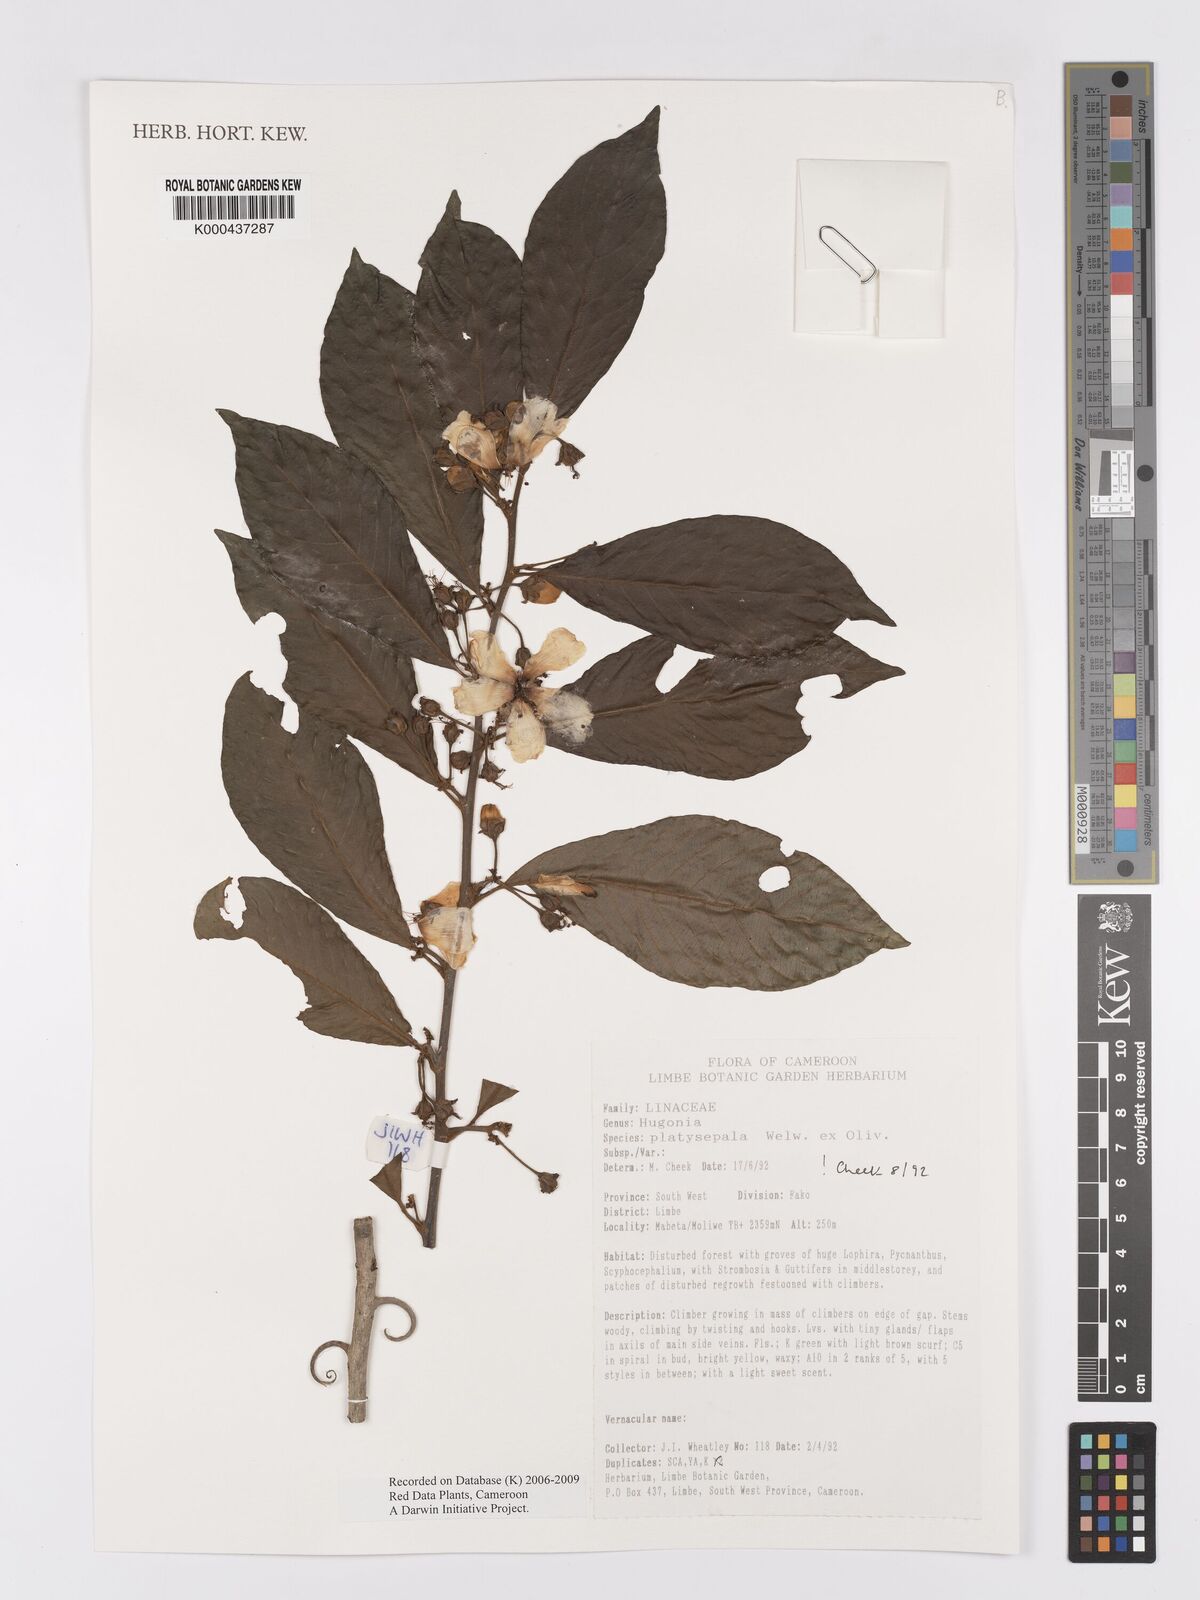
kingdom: Plantae
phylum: Tracheophyta
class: Magnoliopsida
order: Malpighiales
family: Linaceae
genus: Hugonia
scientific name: Hugonia platysepala
